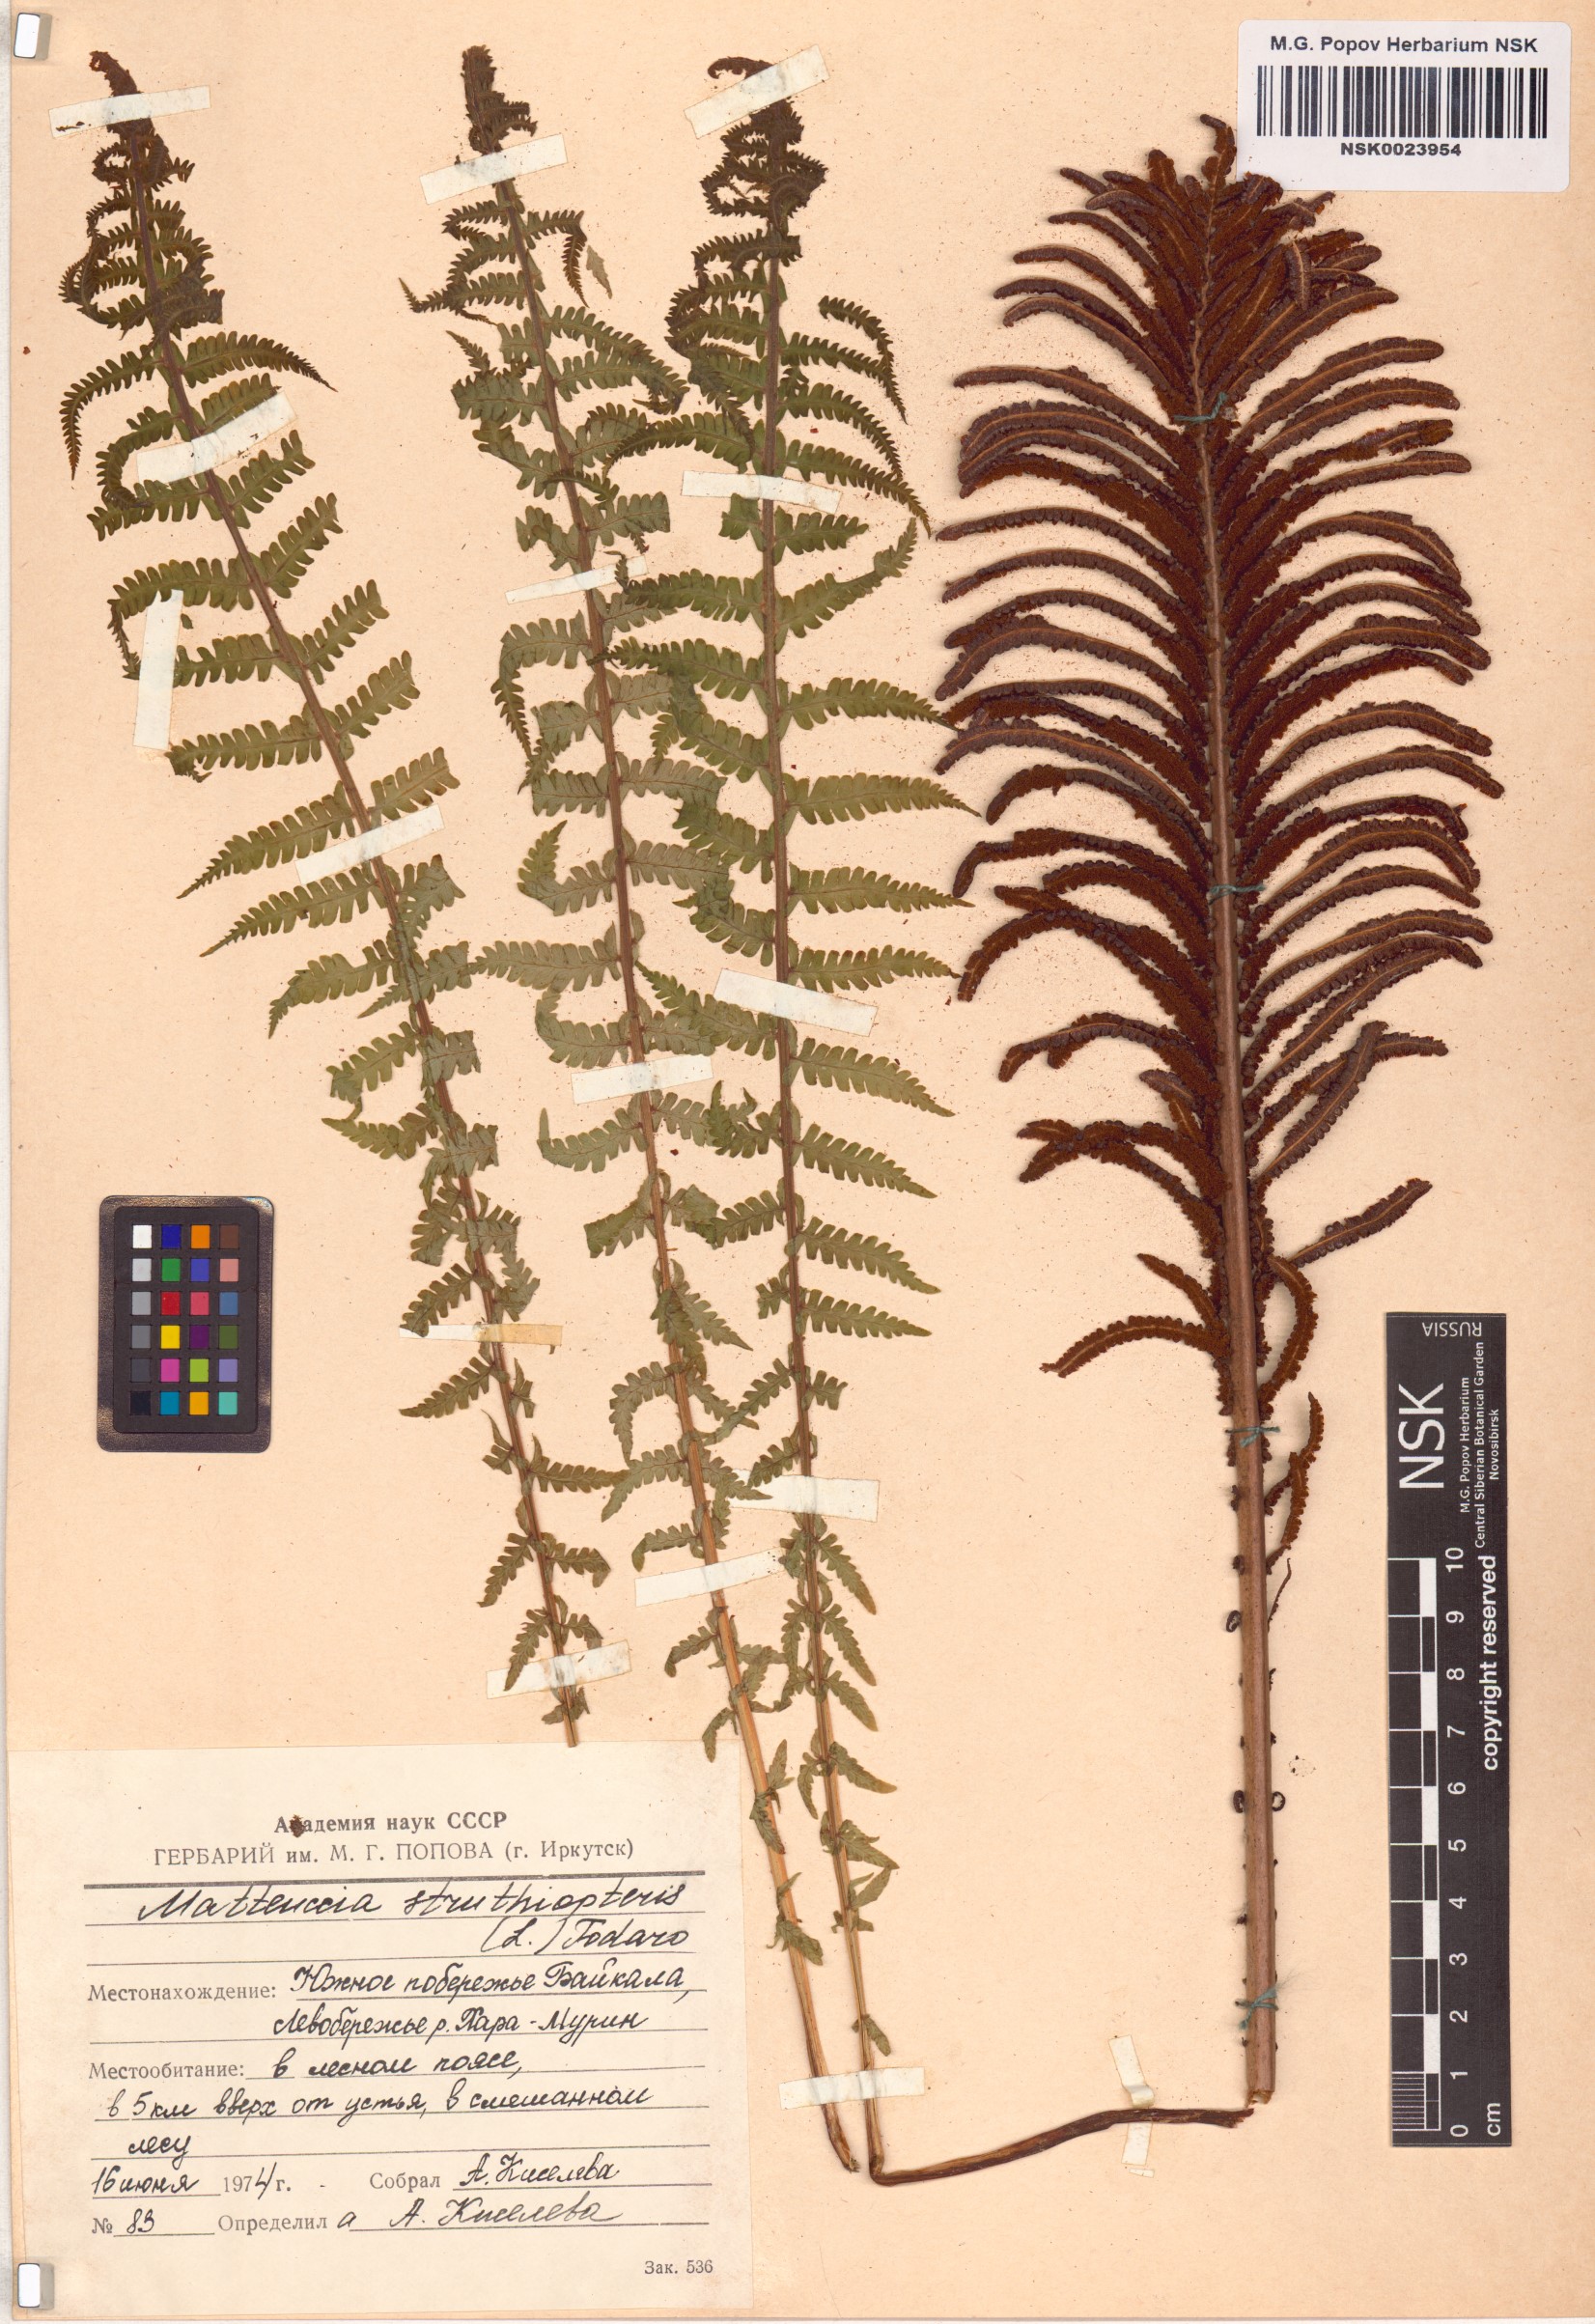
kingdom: Plantae
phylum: Tracheophyta
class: Polypodiopsida
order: Polypodiales
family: Onocleaceae
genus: Matteuccia
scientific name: Matteuccia struthiopteris
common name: Ostrich fern
